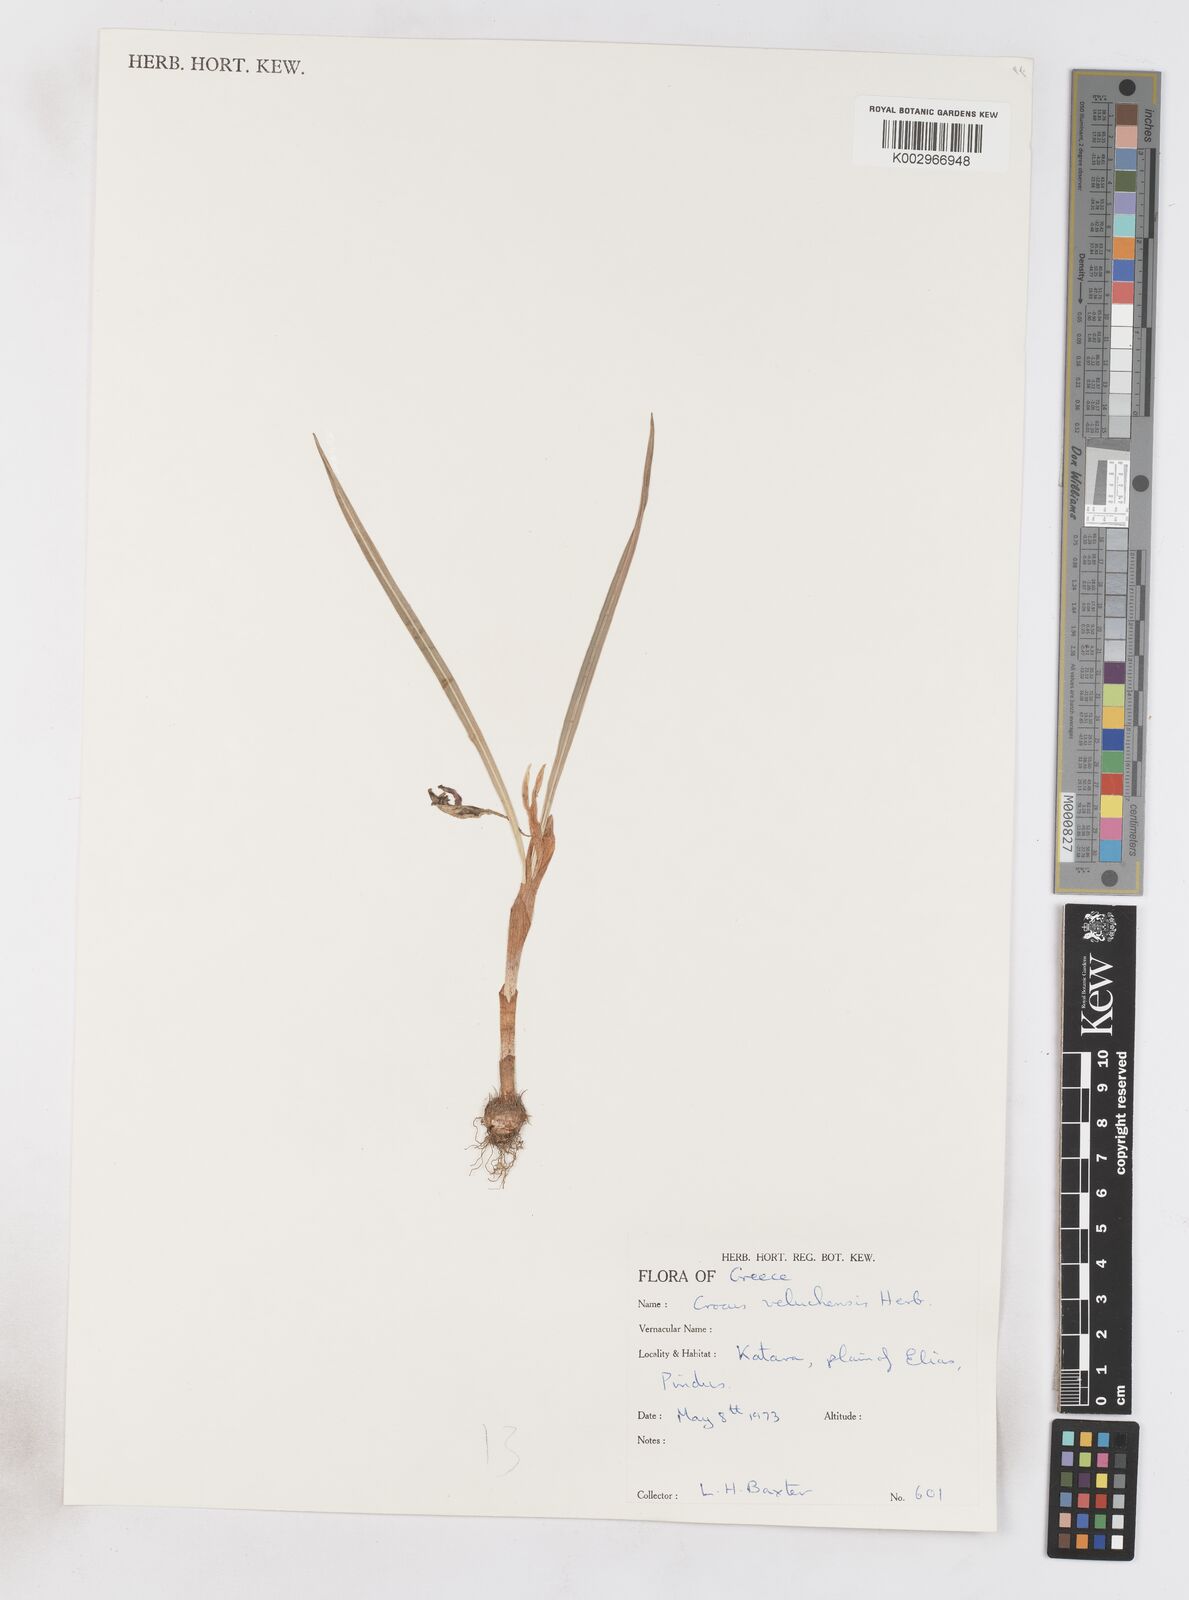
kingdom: Plantae
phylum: Tracheophyta
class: Liliopsida
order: Asparagales
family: Iridaceae
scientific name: Iridaceae
